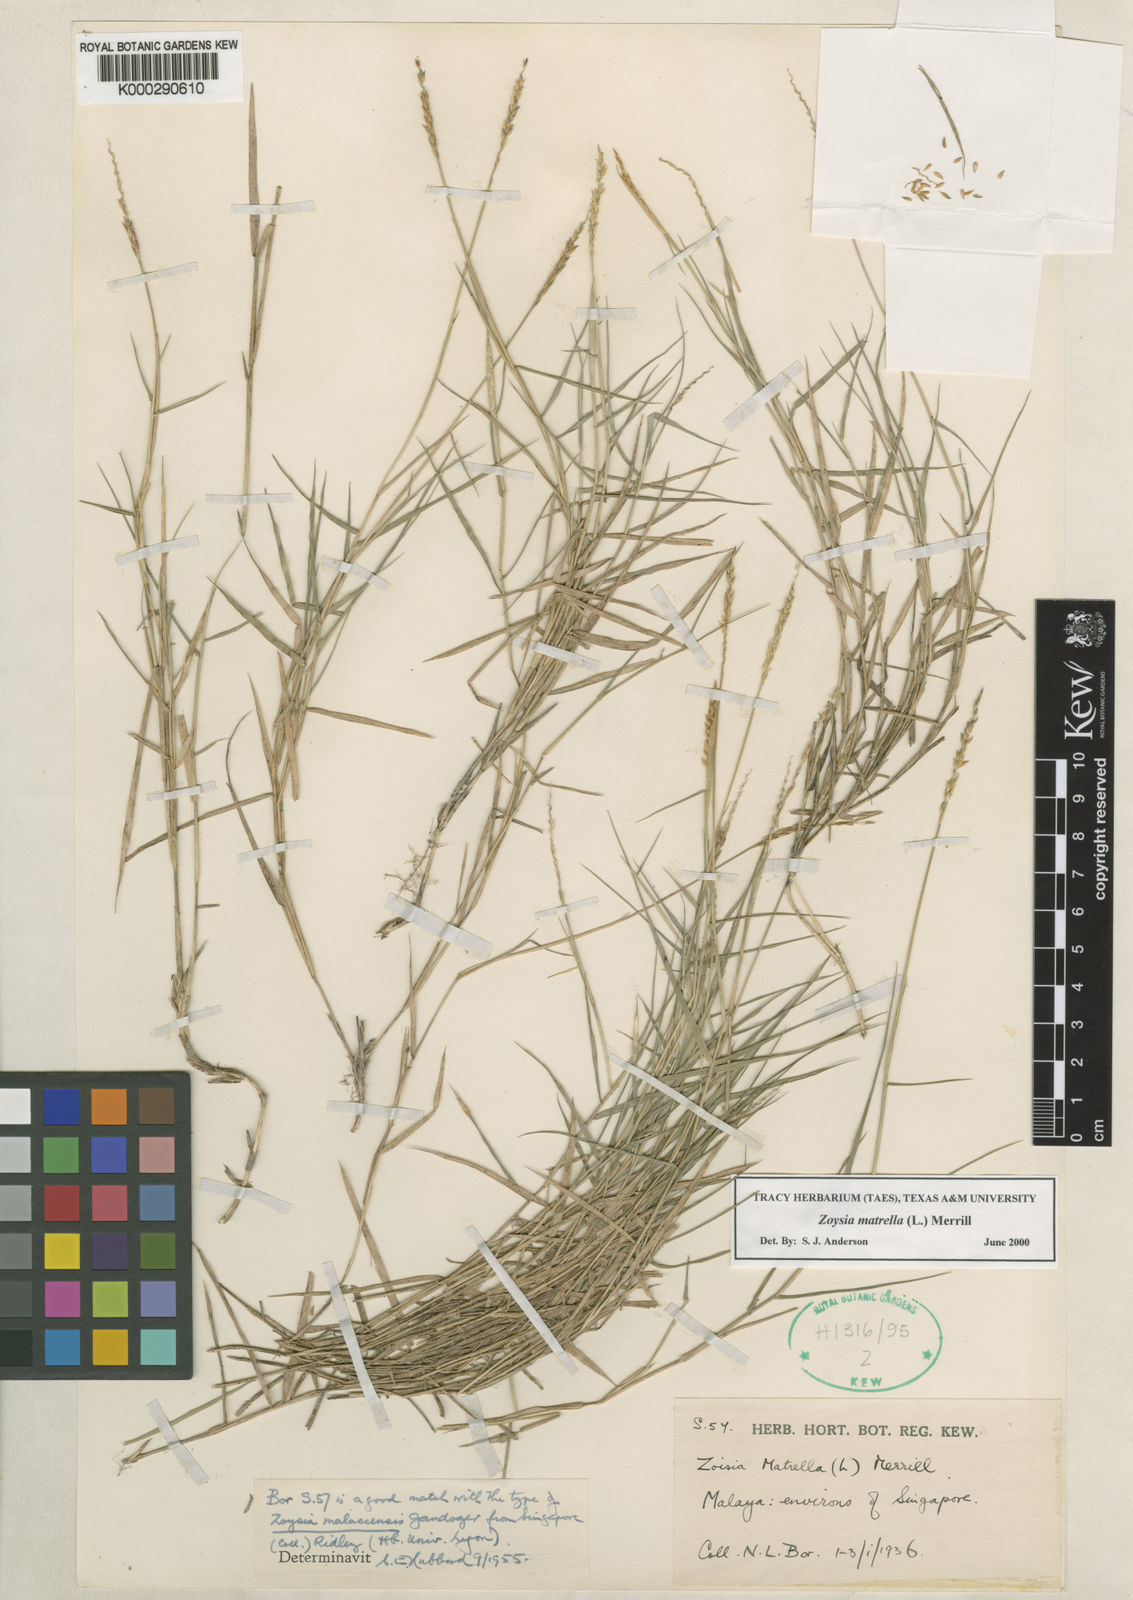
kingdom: Plantae
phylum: Tracheophyta
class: Liliopsida
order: Poales
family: Poaceae
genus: Zoysia
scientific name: Zoysia matrella
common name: Manila grass
